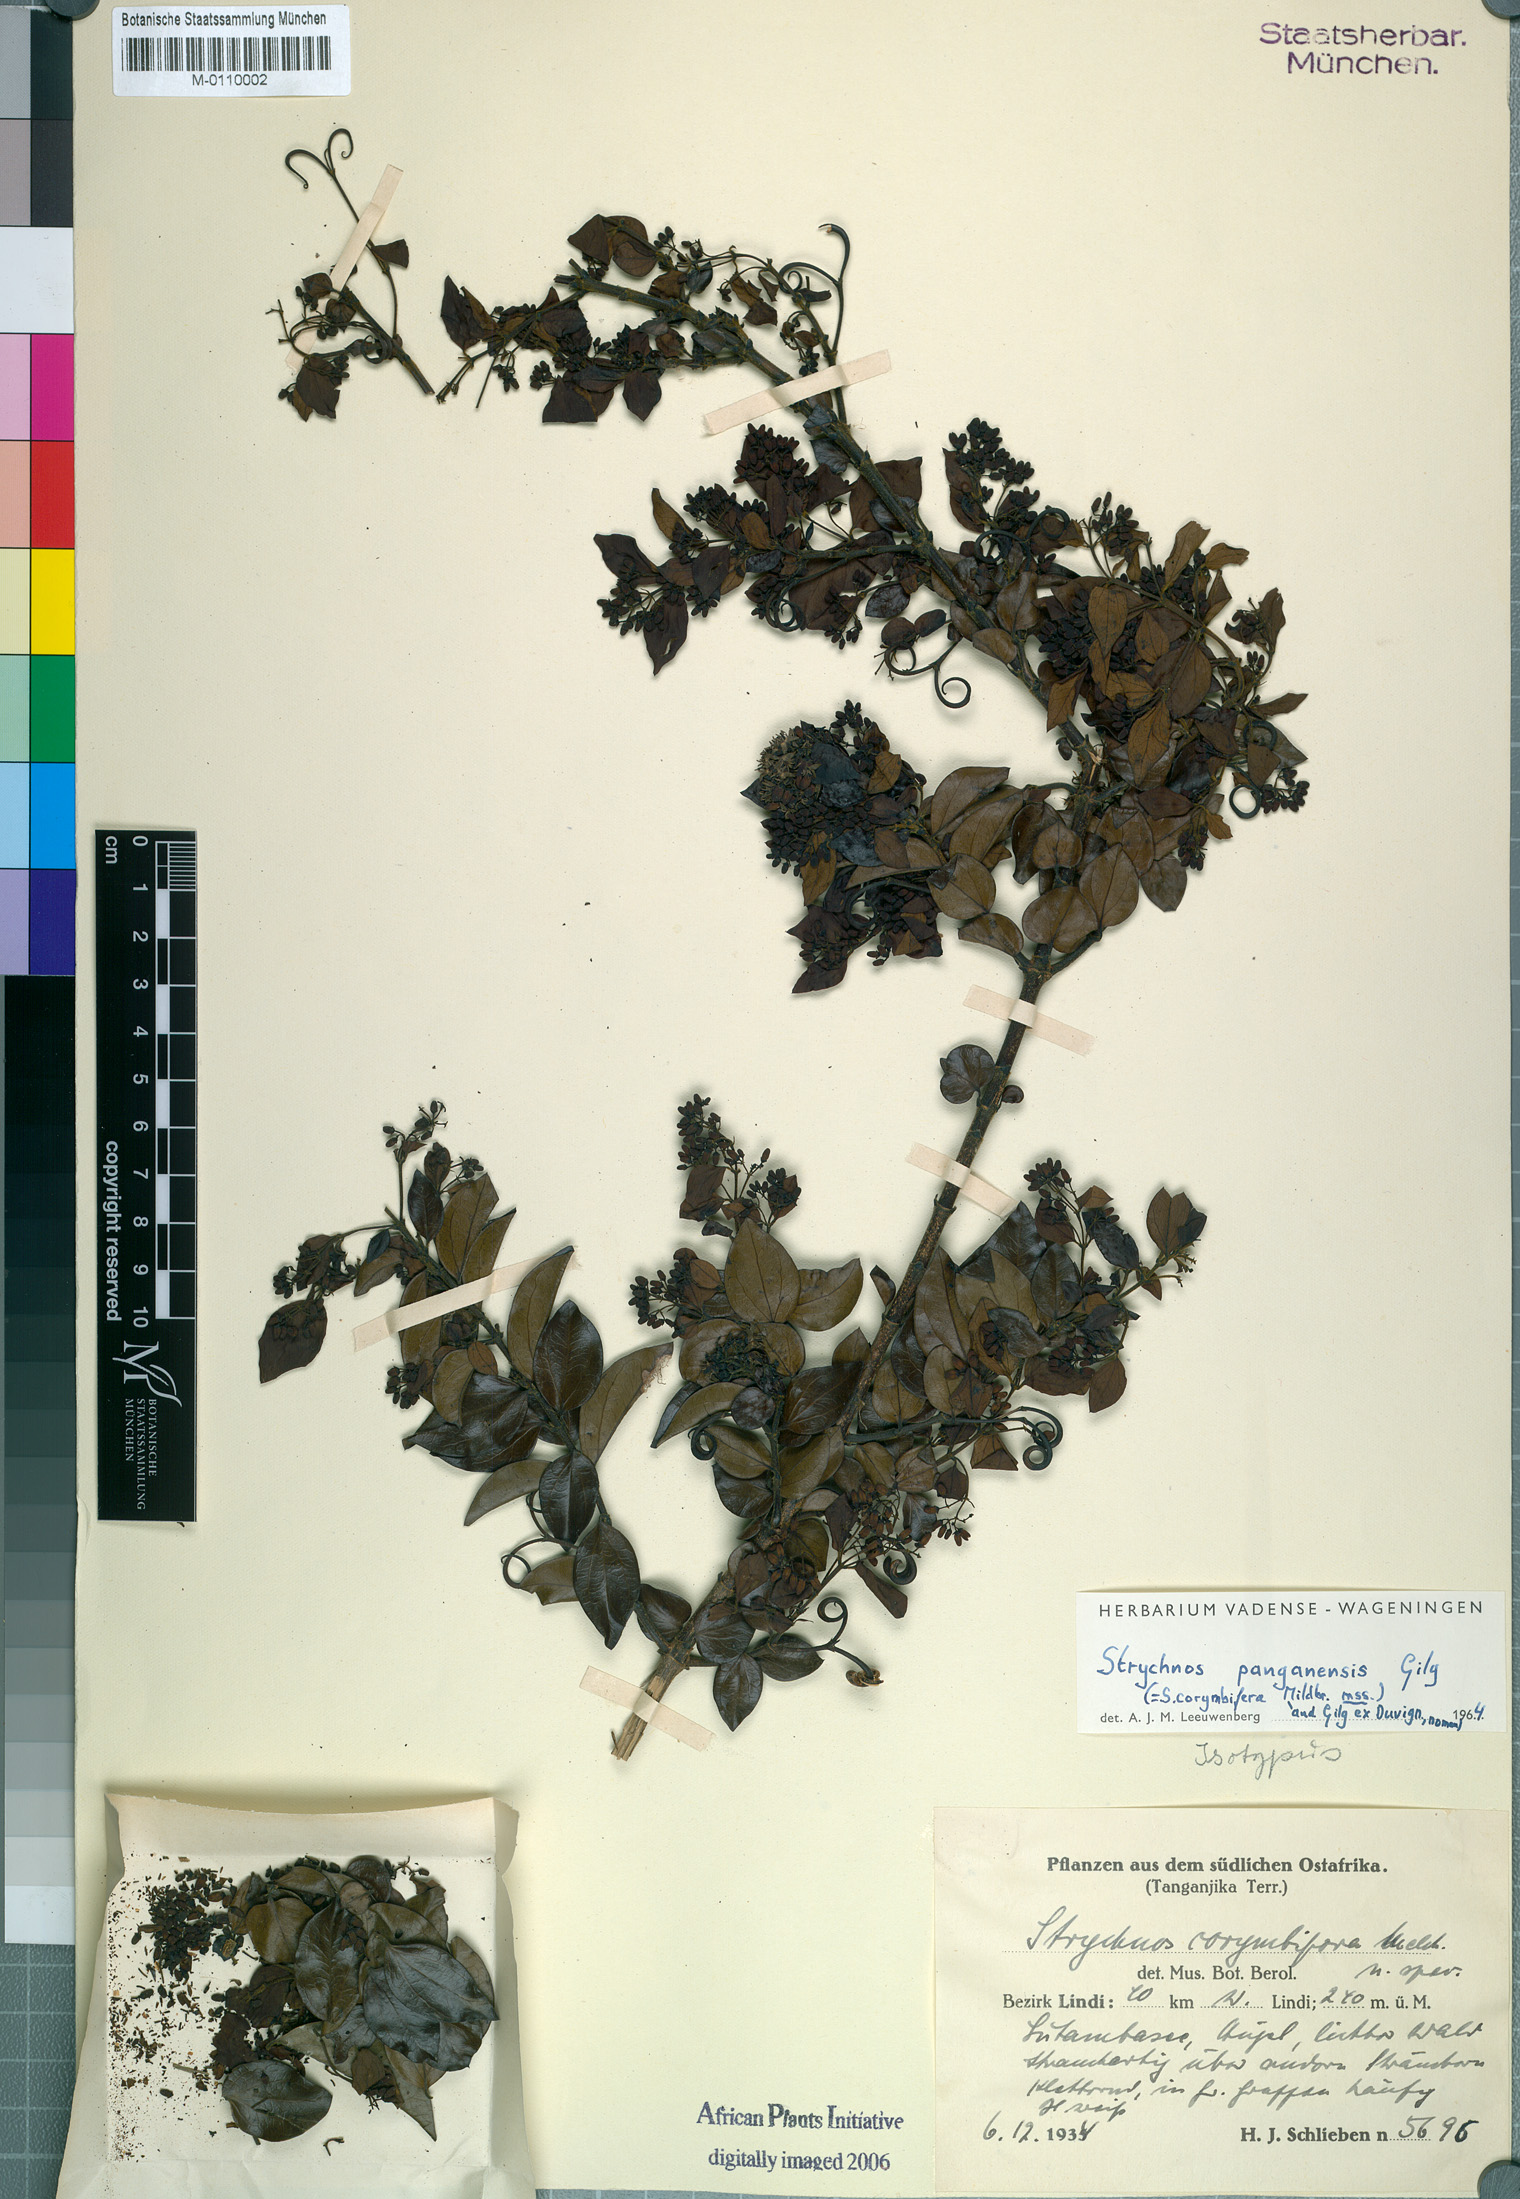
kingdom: Plantae
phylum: Tracheophyta
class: Magnoliopsida
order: Gentianales
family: Loganiaceae
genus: Strychnos
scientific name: Strychnos panganensis
